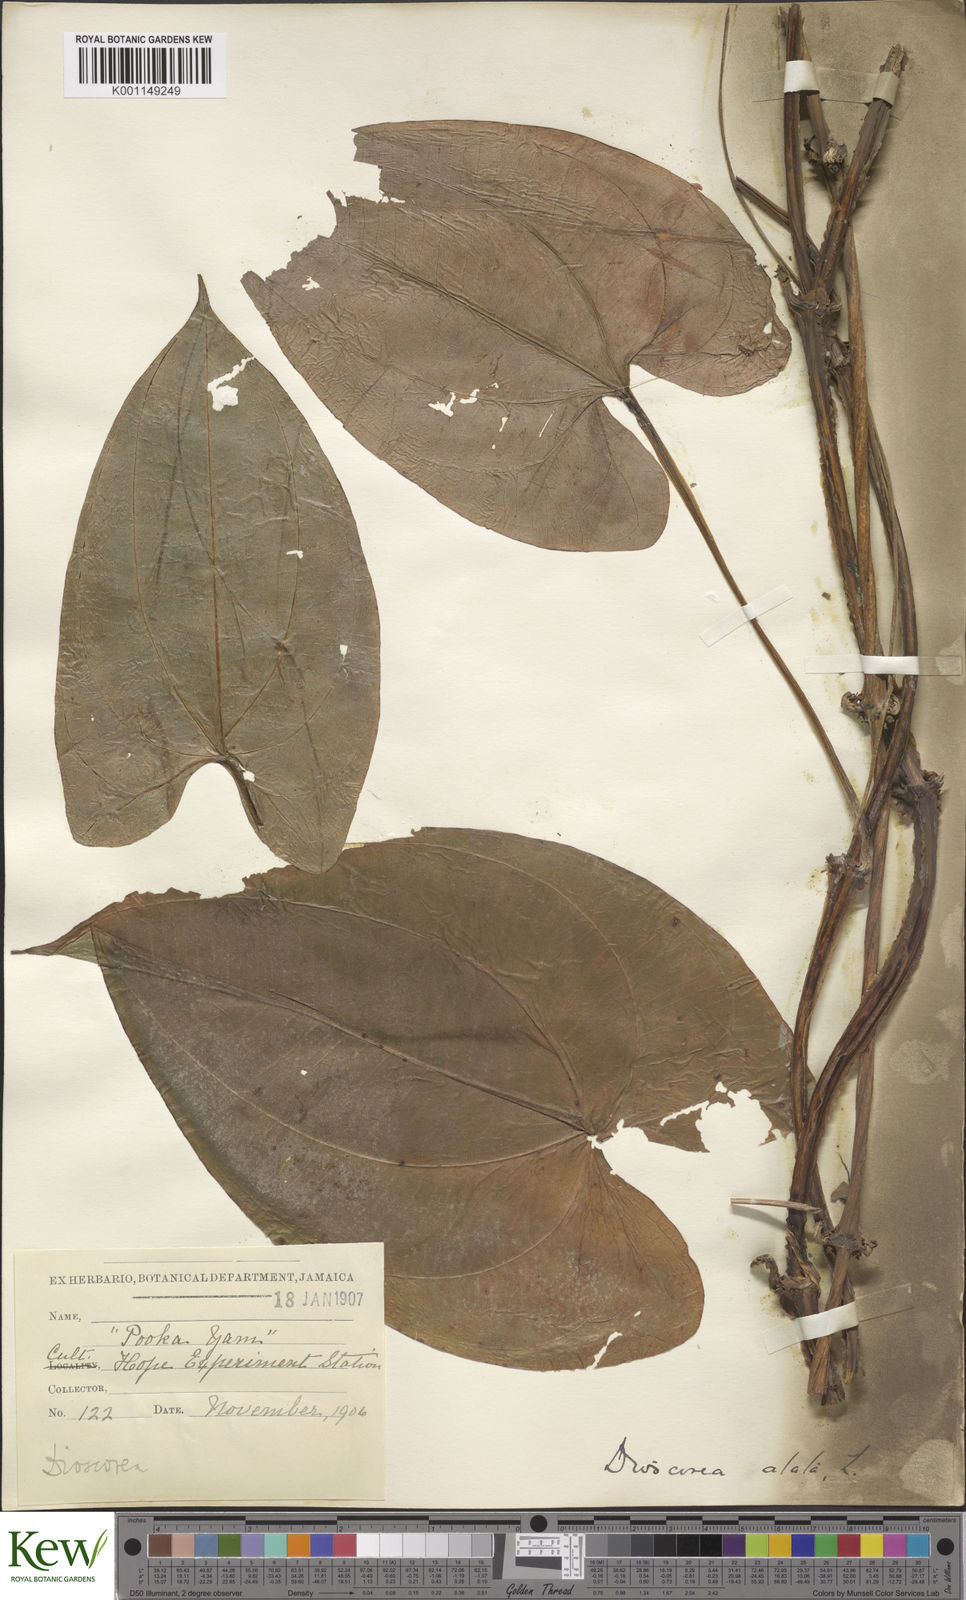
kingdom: Plantae
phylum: Tracheophyta
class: Liliopsida
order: Dioscoreales
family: Dioscoreaceae
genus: Dioscorea
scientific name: Dioscorea alata
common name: Water yam
